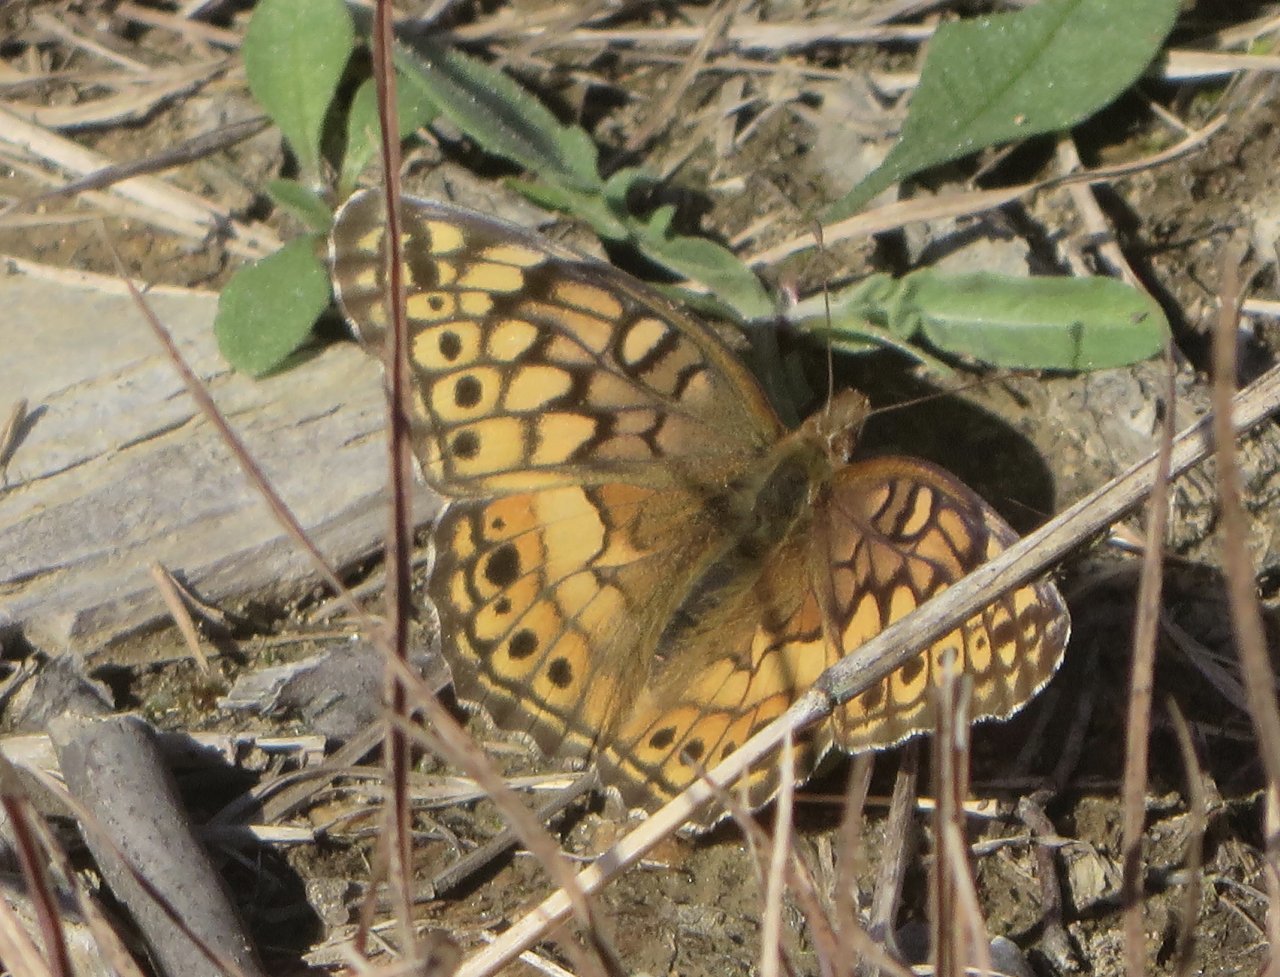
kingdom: Animalia
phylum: Arthropoda
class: Insecta
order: Lepidoptera
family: Nymphalidae
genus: Euptoieta
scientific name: Euptoieta claudia
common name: Variegated Fritillary
